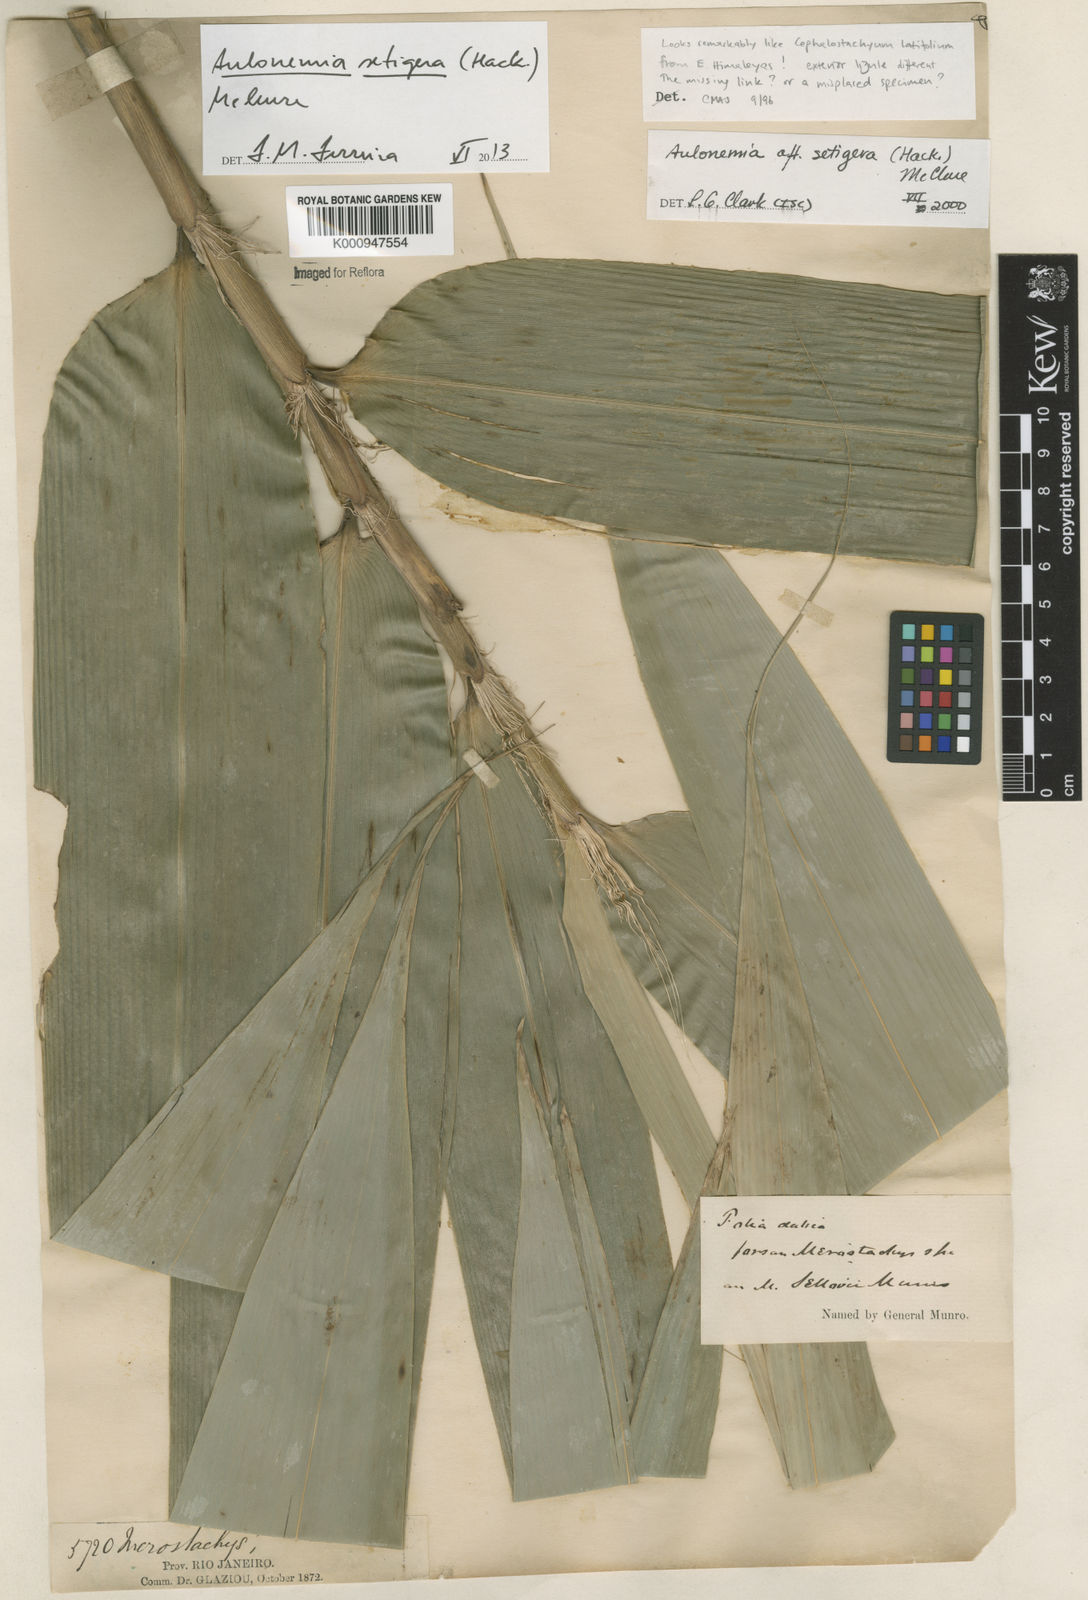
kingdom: Plantae
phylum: Tracheophyta
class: Liliopsida
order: Poales
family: Poaceae
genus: Aulonemia
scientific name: Aulonemia setigera
